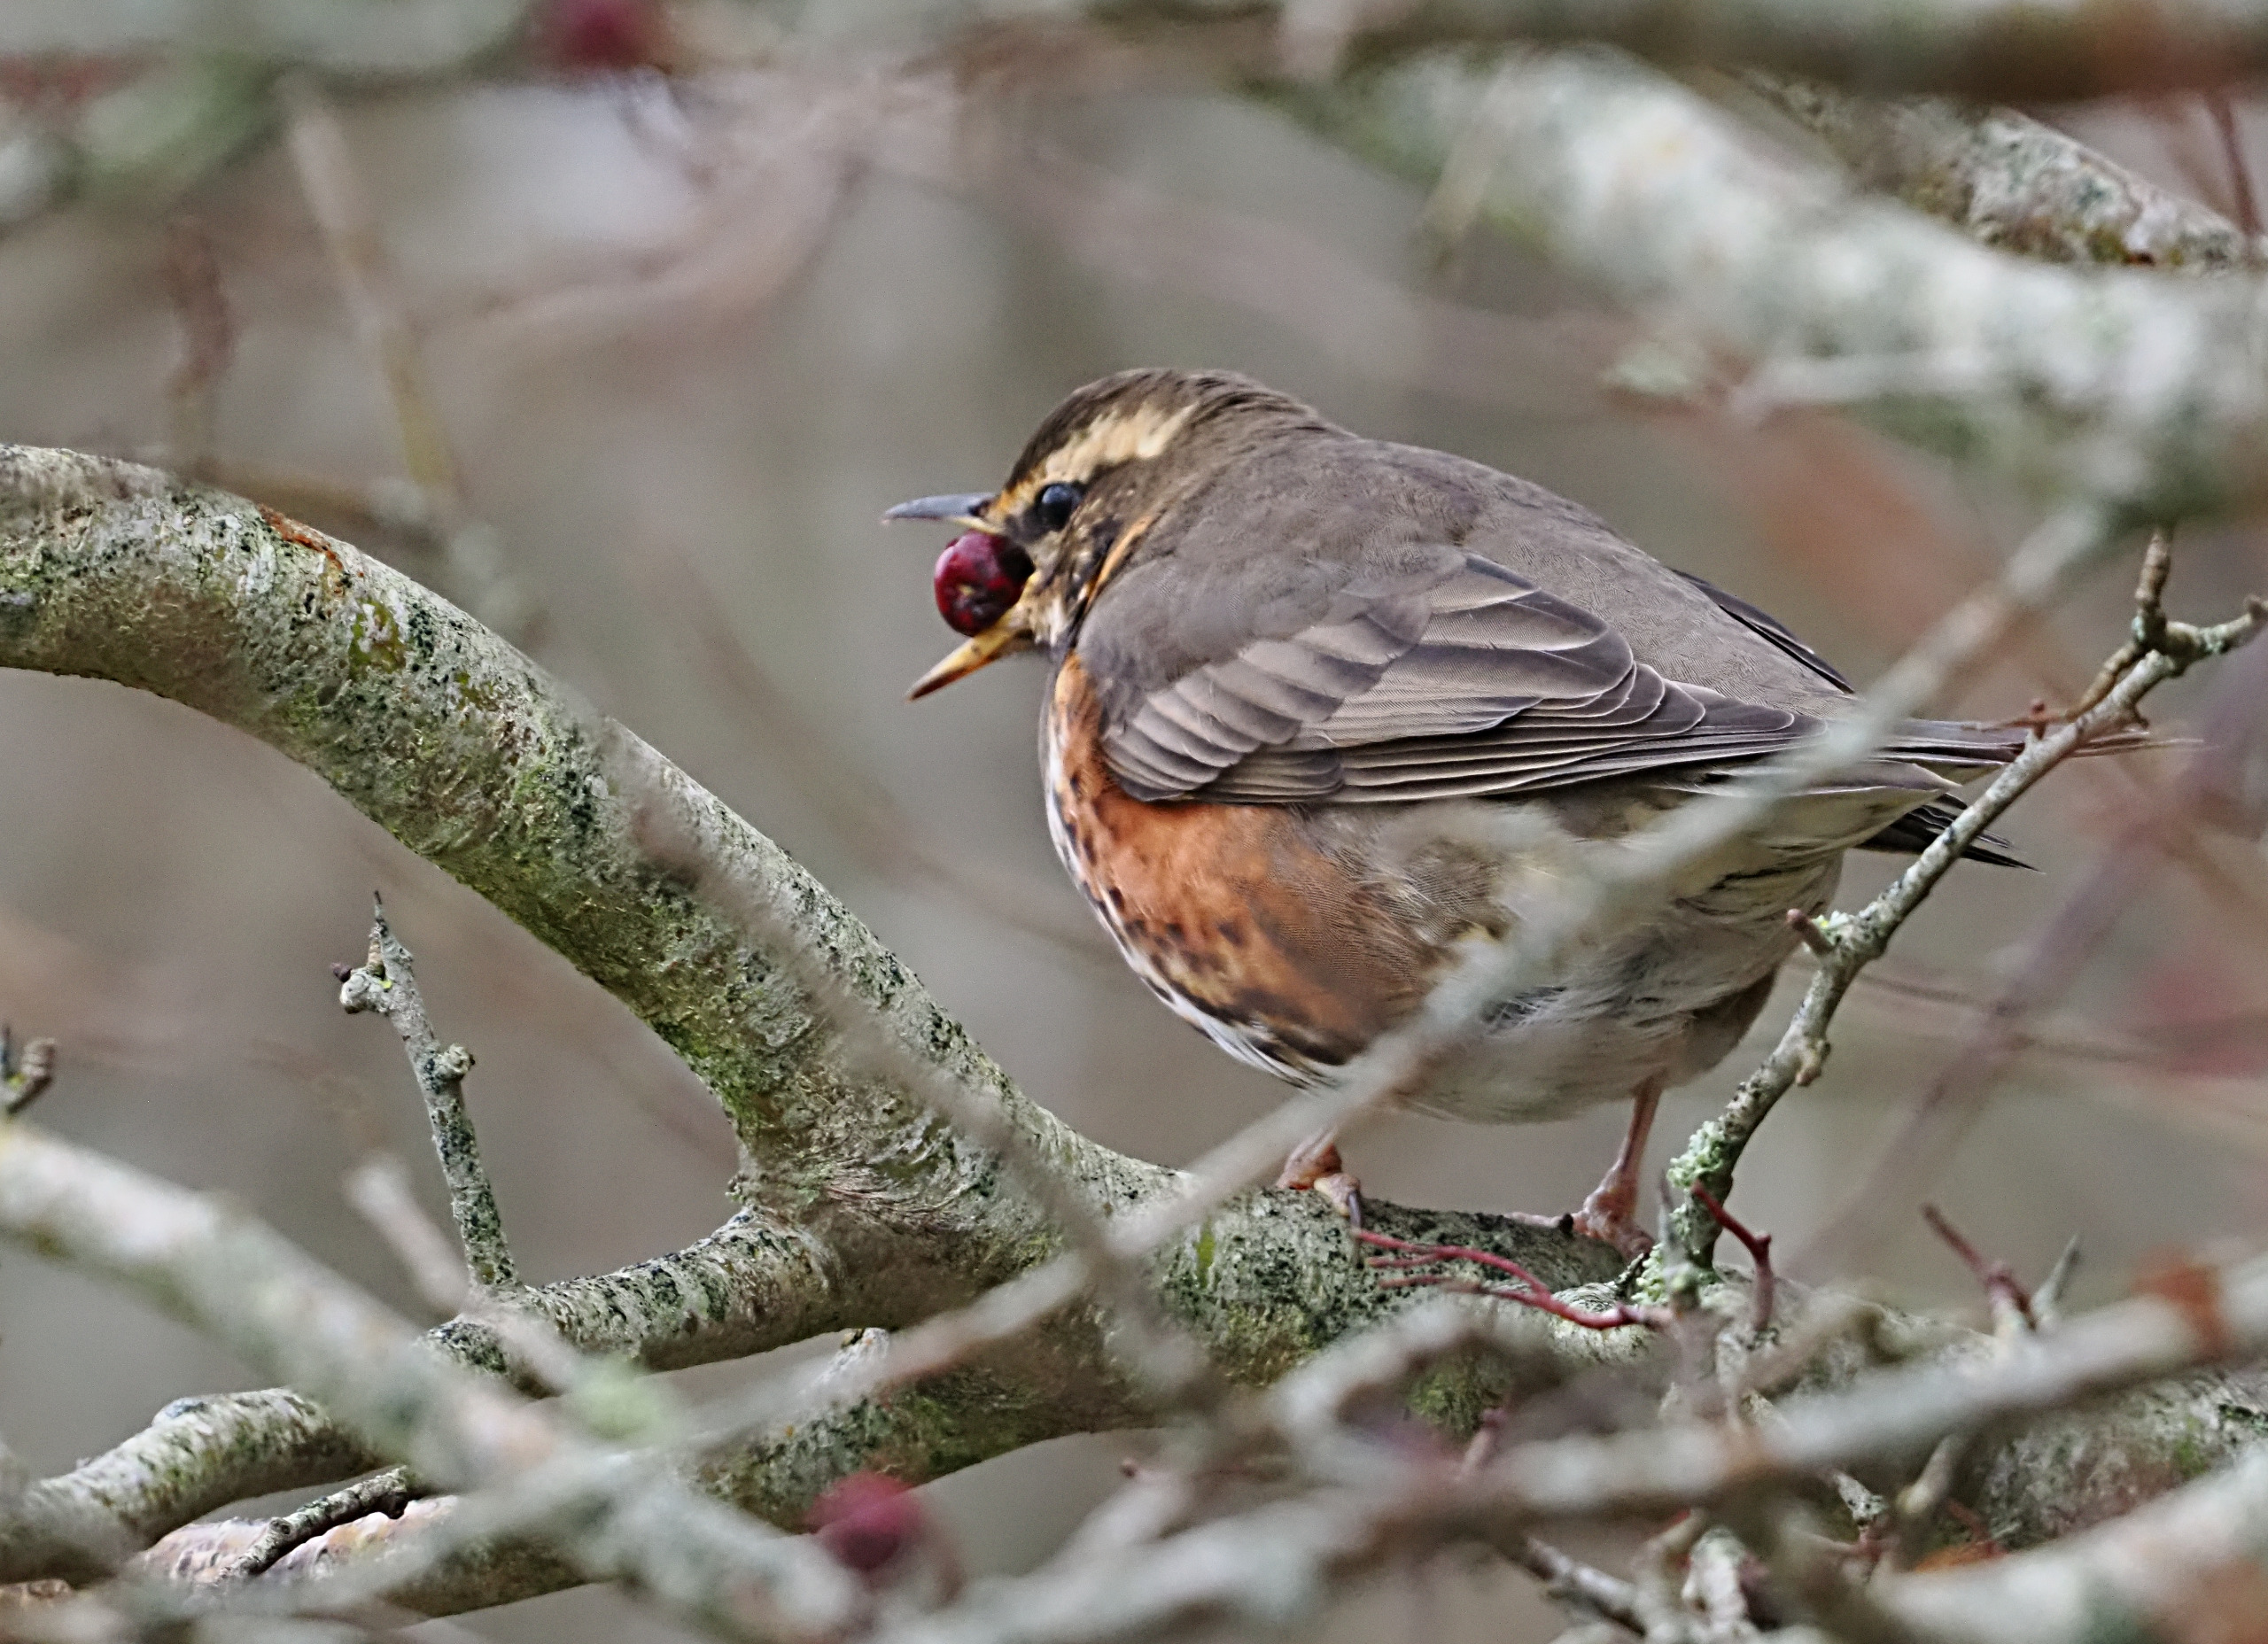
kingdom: Animalia
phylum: Chordata
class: Aves
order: Passeriformes
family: Turdidae
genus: Turdus
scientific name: Turdus iliacus
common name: Vindrossel
